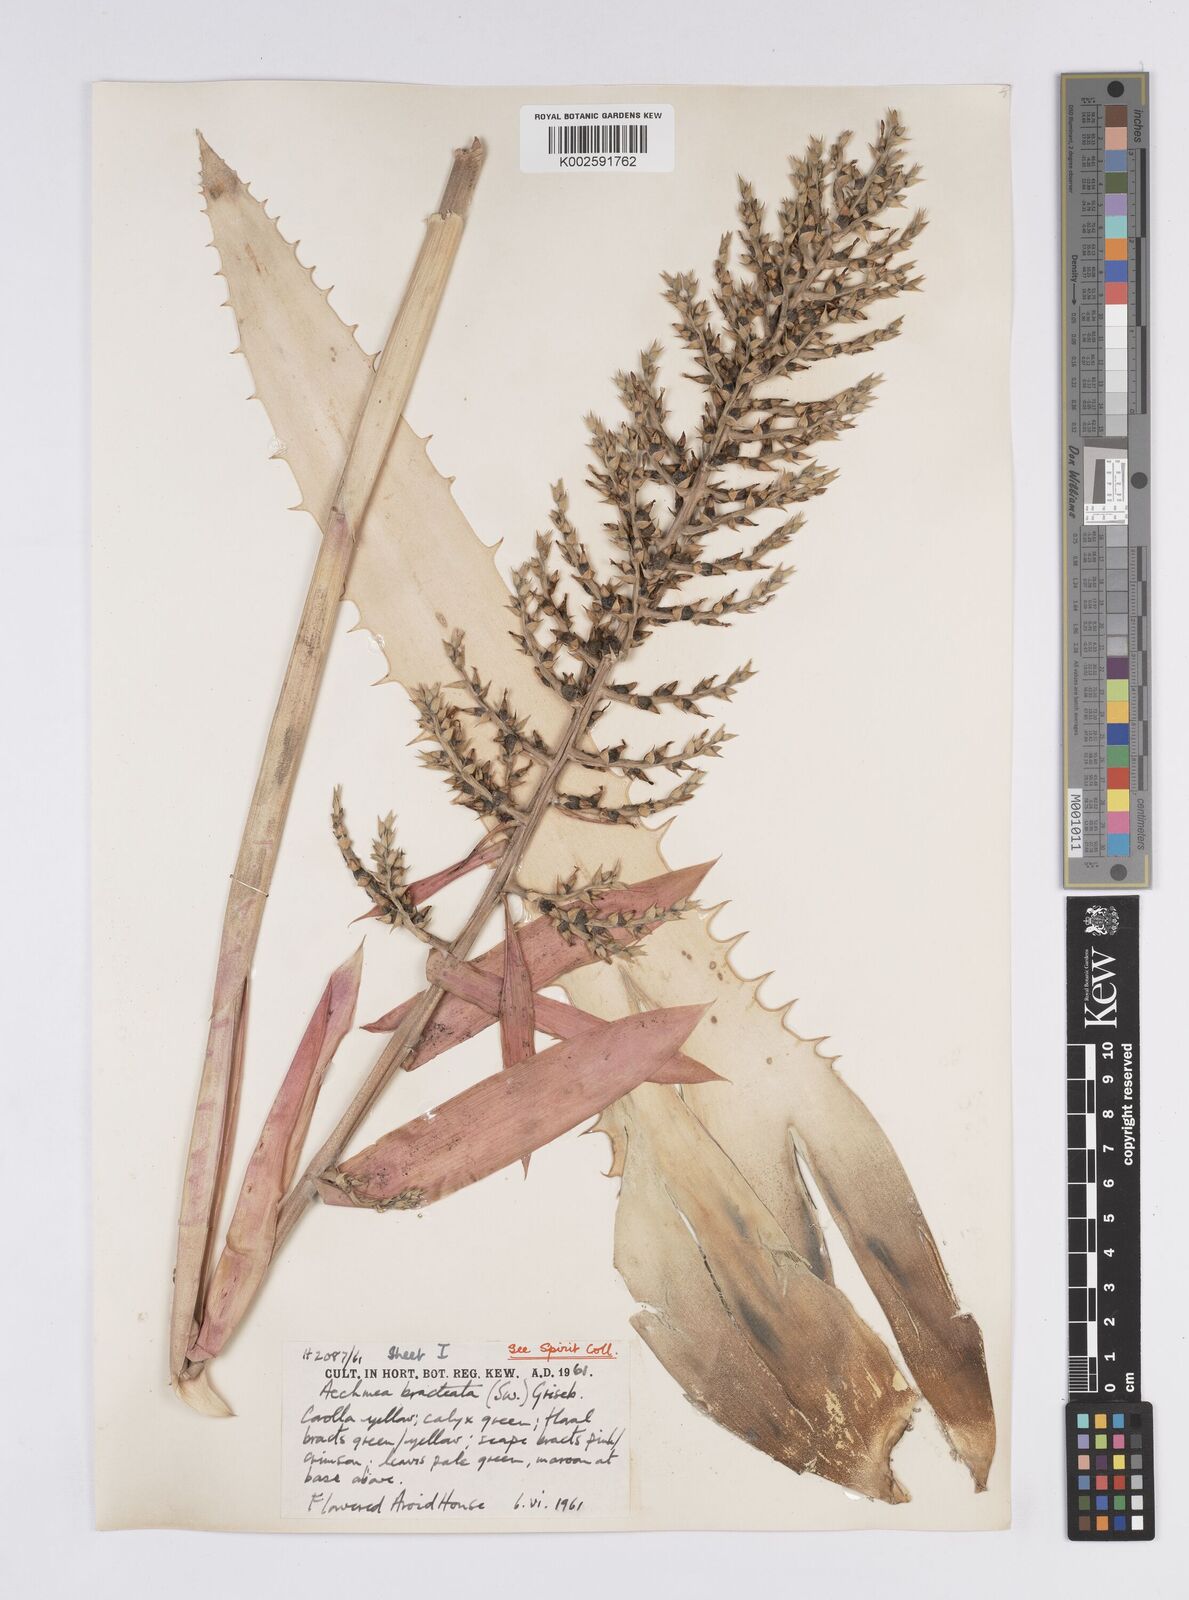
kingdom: Plantae
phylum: Tracheophyta
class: Liliopsida
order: Poales
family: Bromeliaceae
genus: Aechmea
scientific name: Aechmea bracteata
